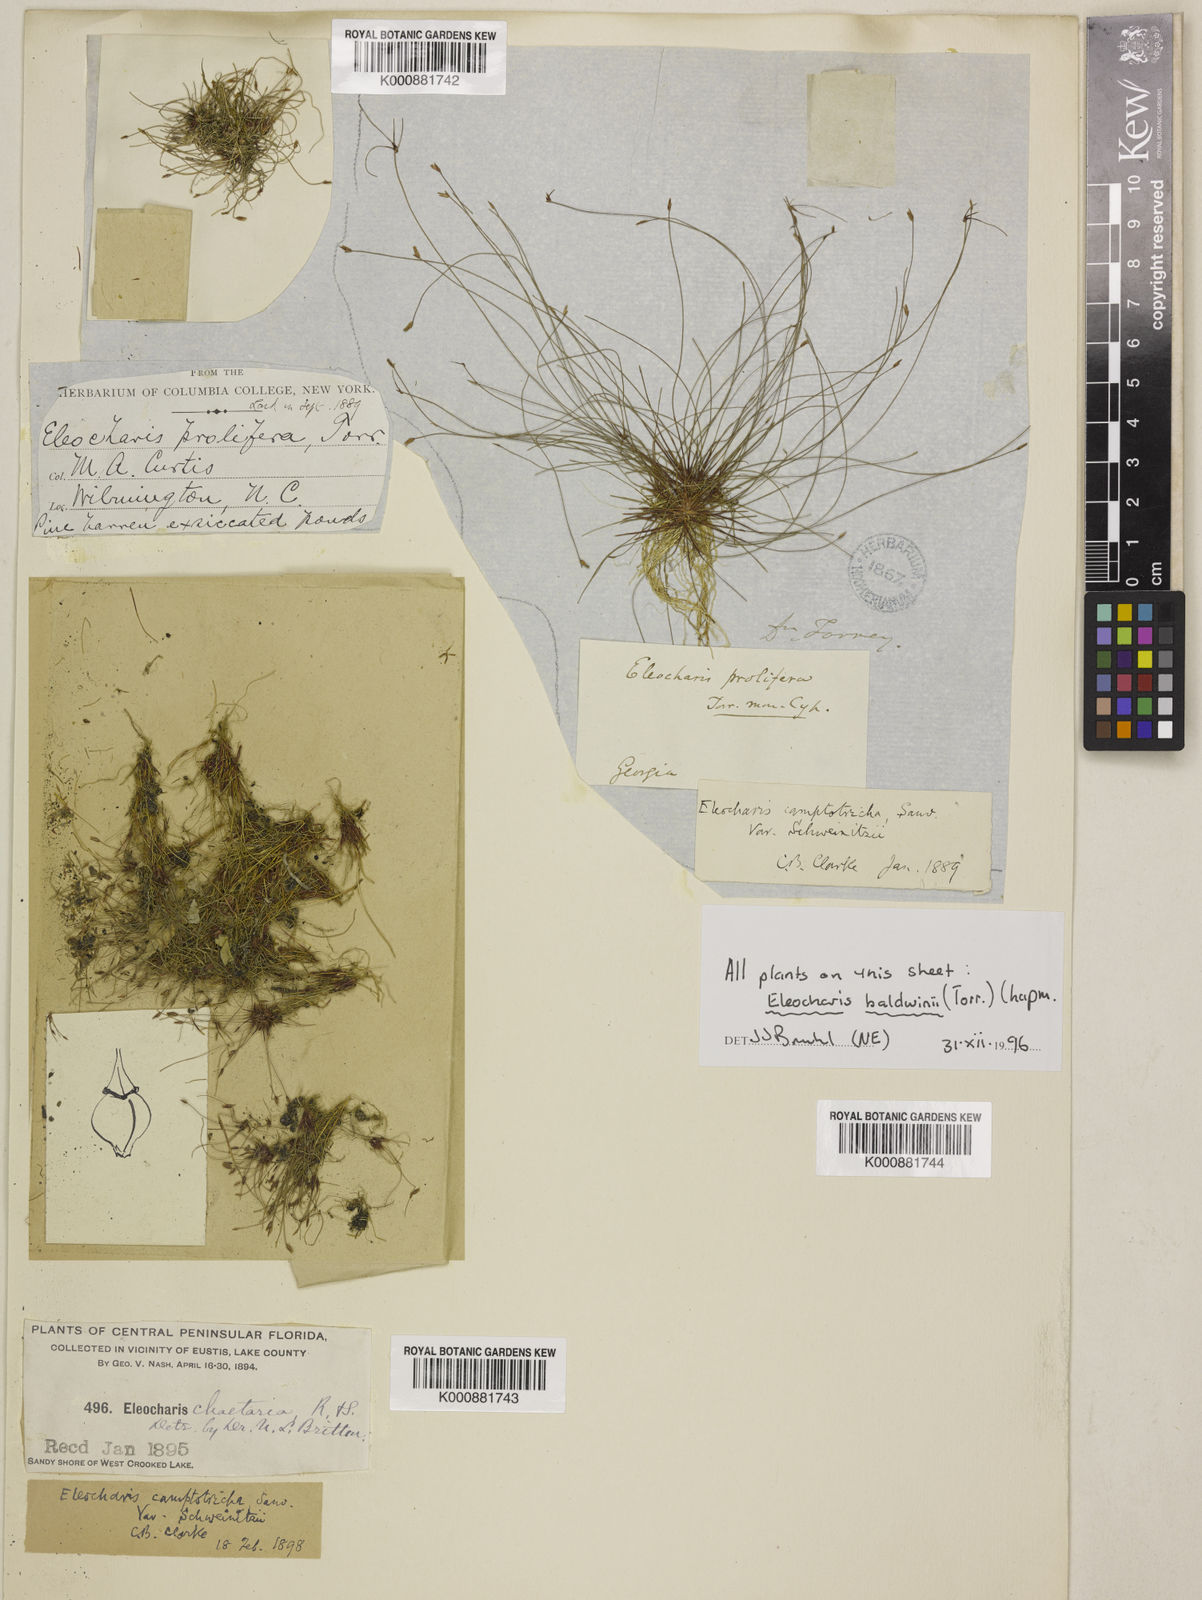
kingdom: Plantae
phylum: Tracheophyta
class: Liliopsida
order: Poales
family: Cyperaceae
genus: Eleocharis
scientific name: Eleocharis baldwinii
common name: Baldwin's spike-rush
